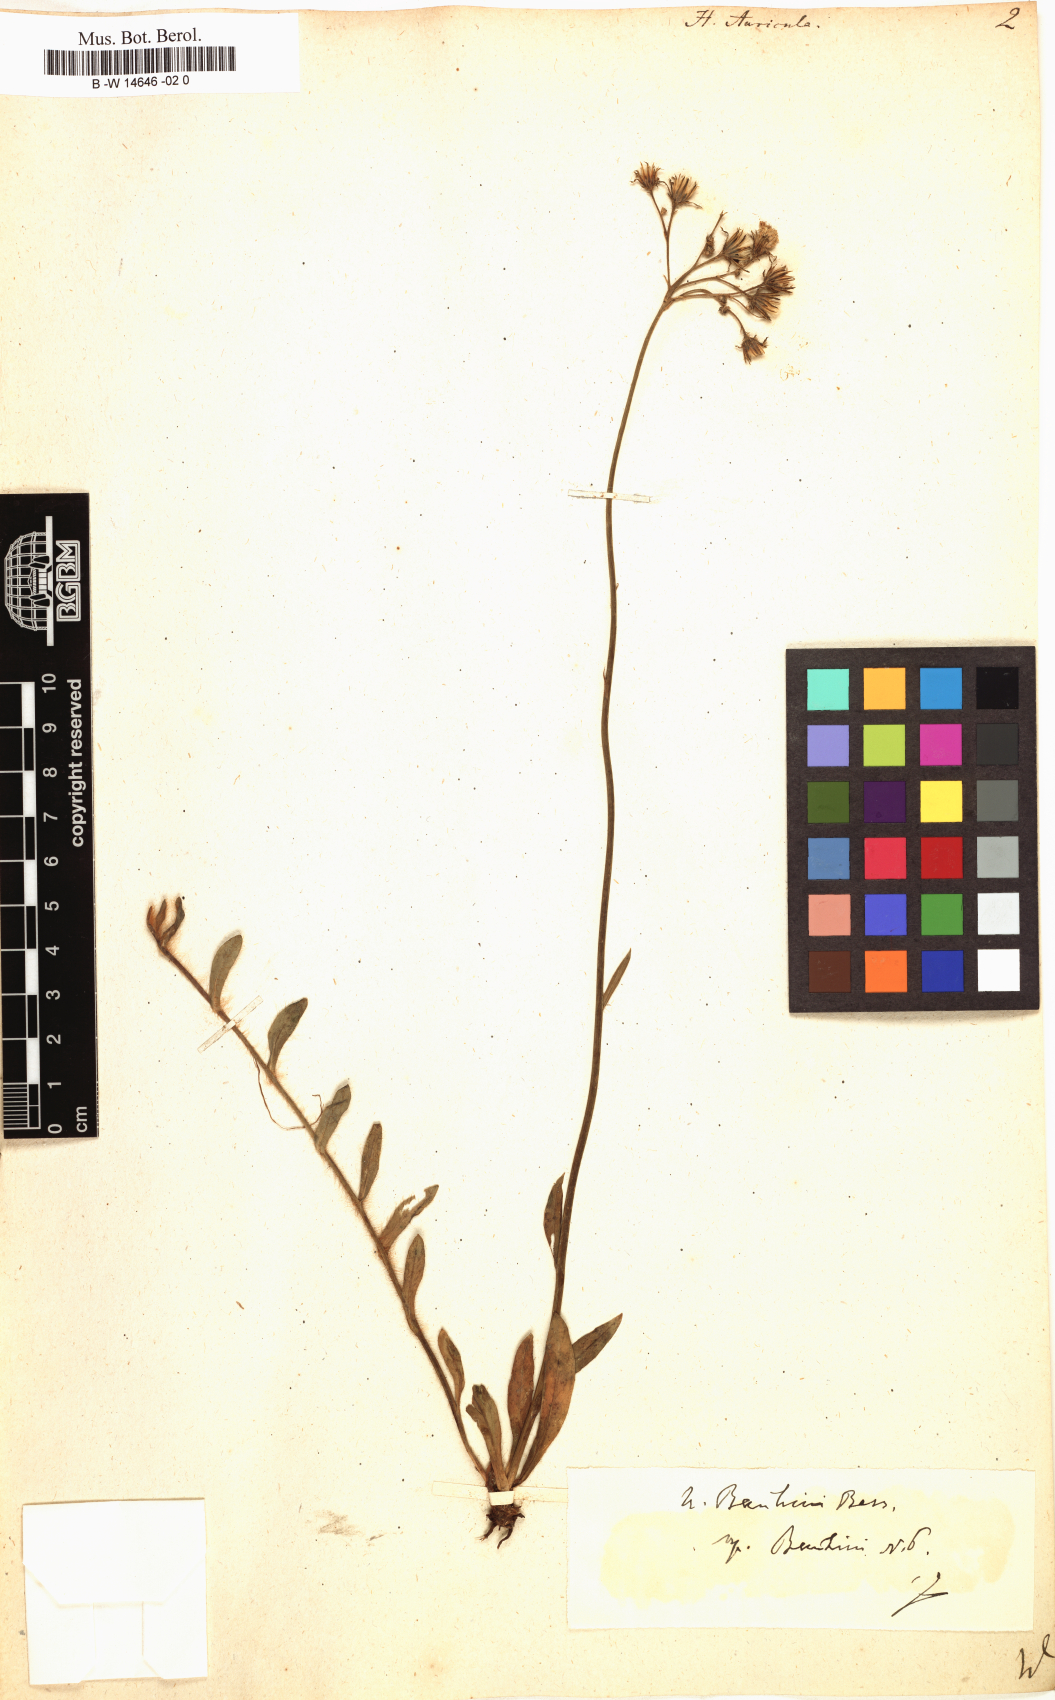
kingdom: Plantae
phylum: Tracheophyta
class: Magnoliopsida
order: Asterales
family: Asteraceae
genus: Hieracium
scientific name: Hieracium auricula
